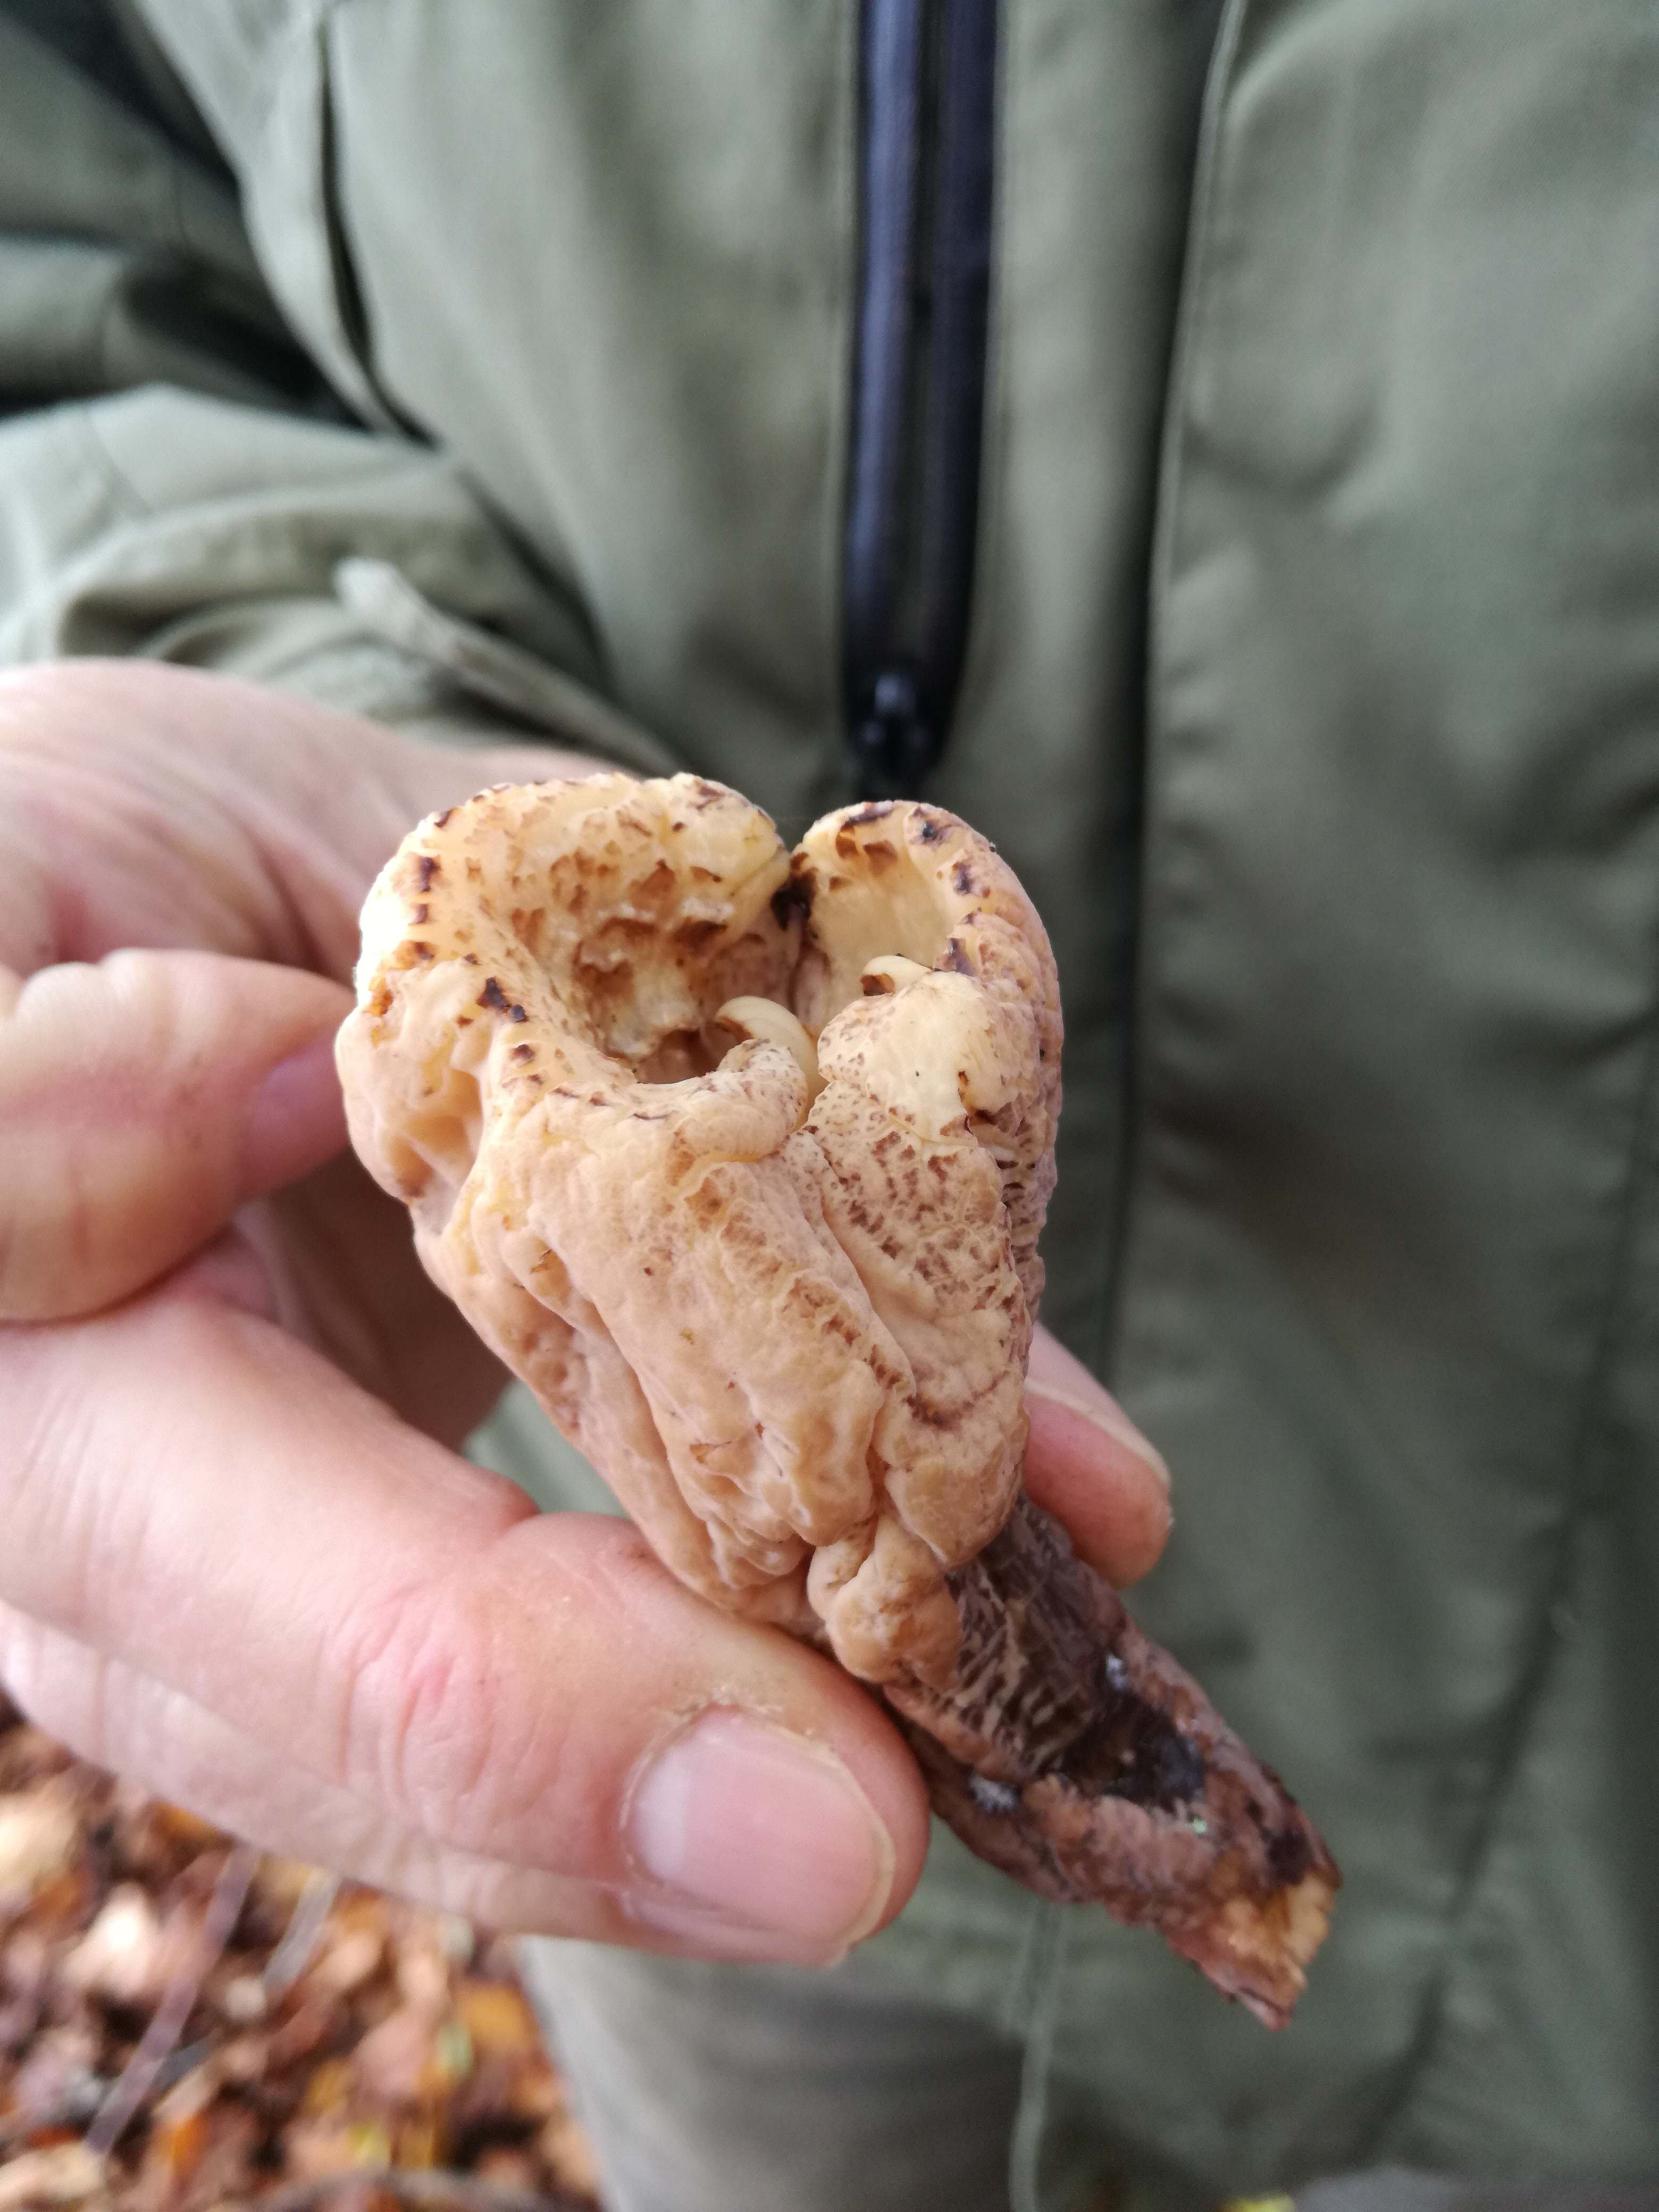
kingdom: Fungi
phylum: Basidiomycota
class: Agaricomycetes
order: Gomphales
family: Clavariadelphaceae
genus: Clavariadelphus
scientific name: Clavariadelphus pistillaris
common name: herkules-kæmpekølle
